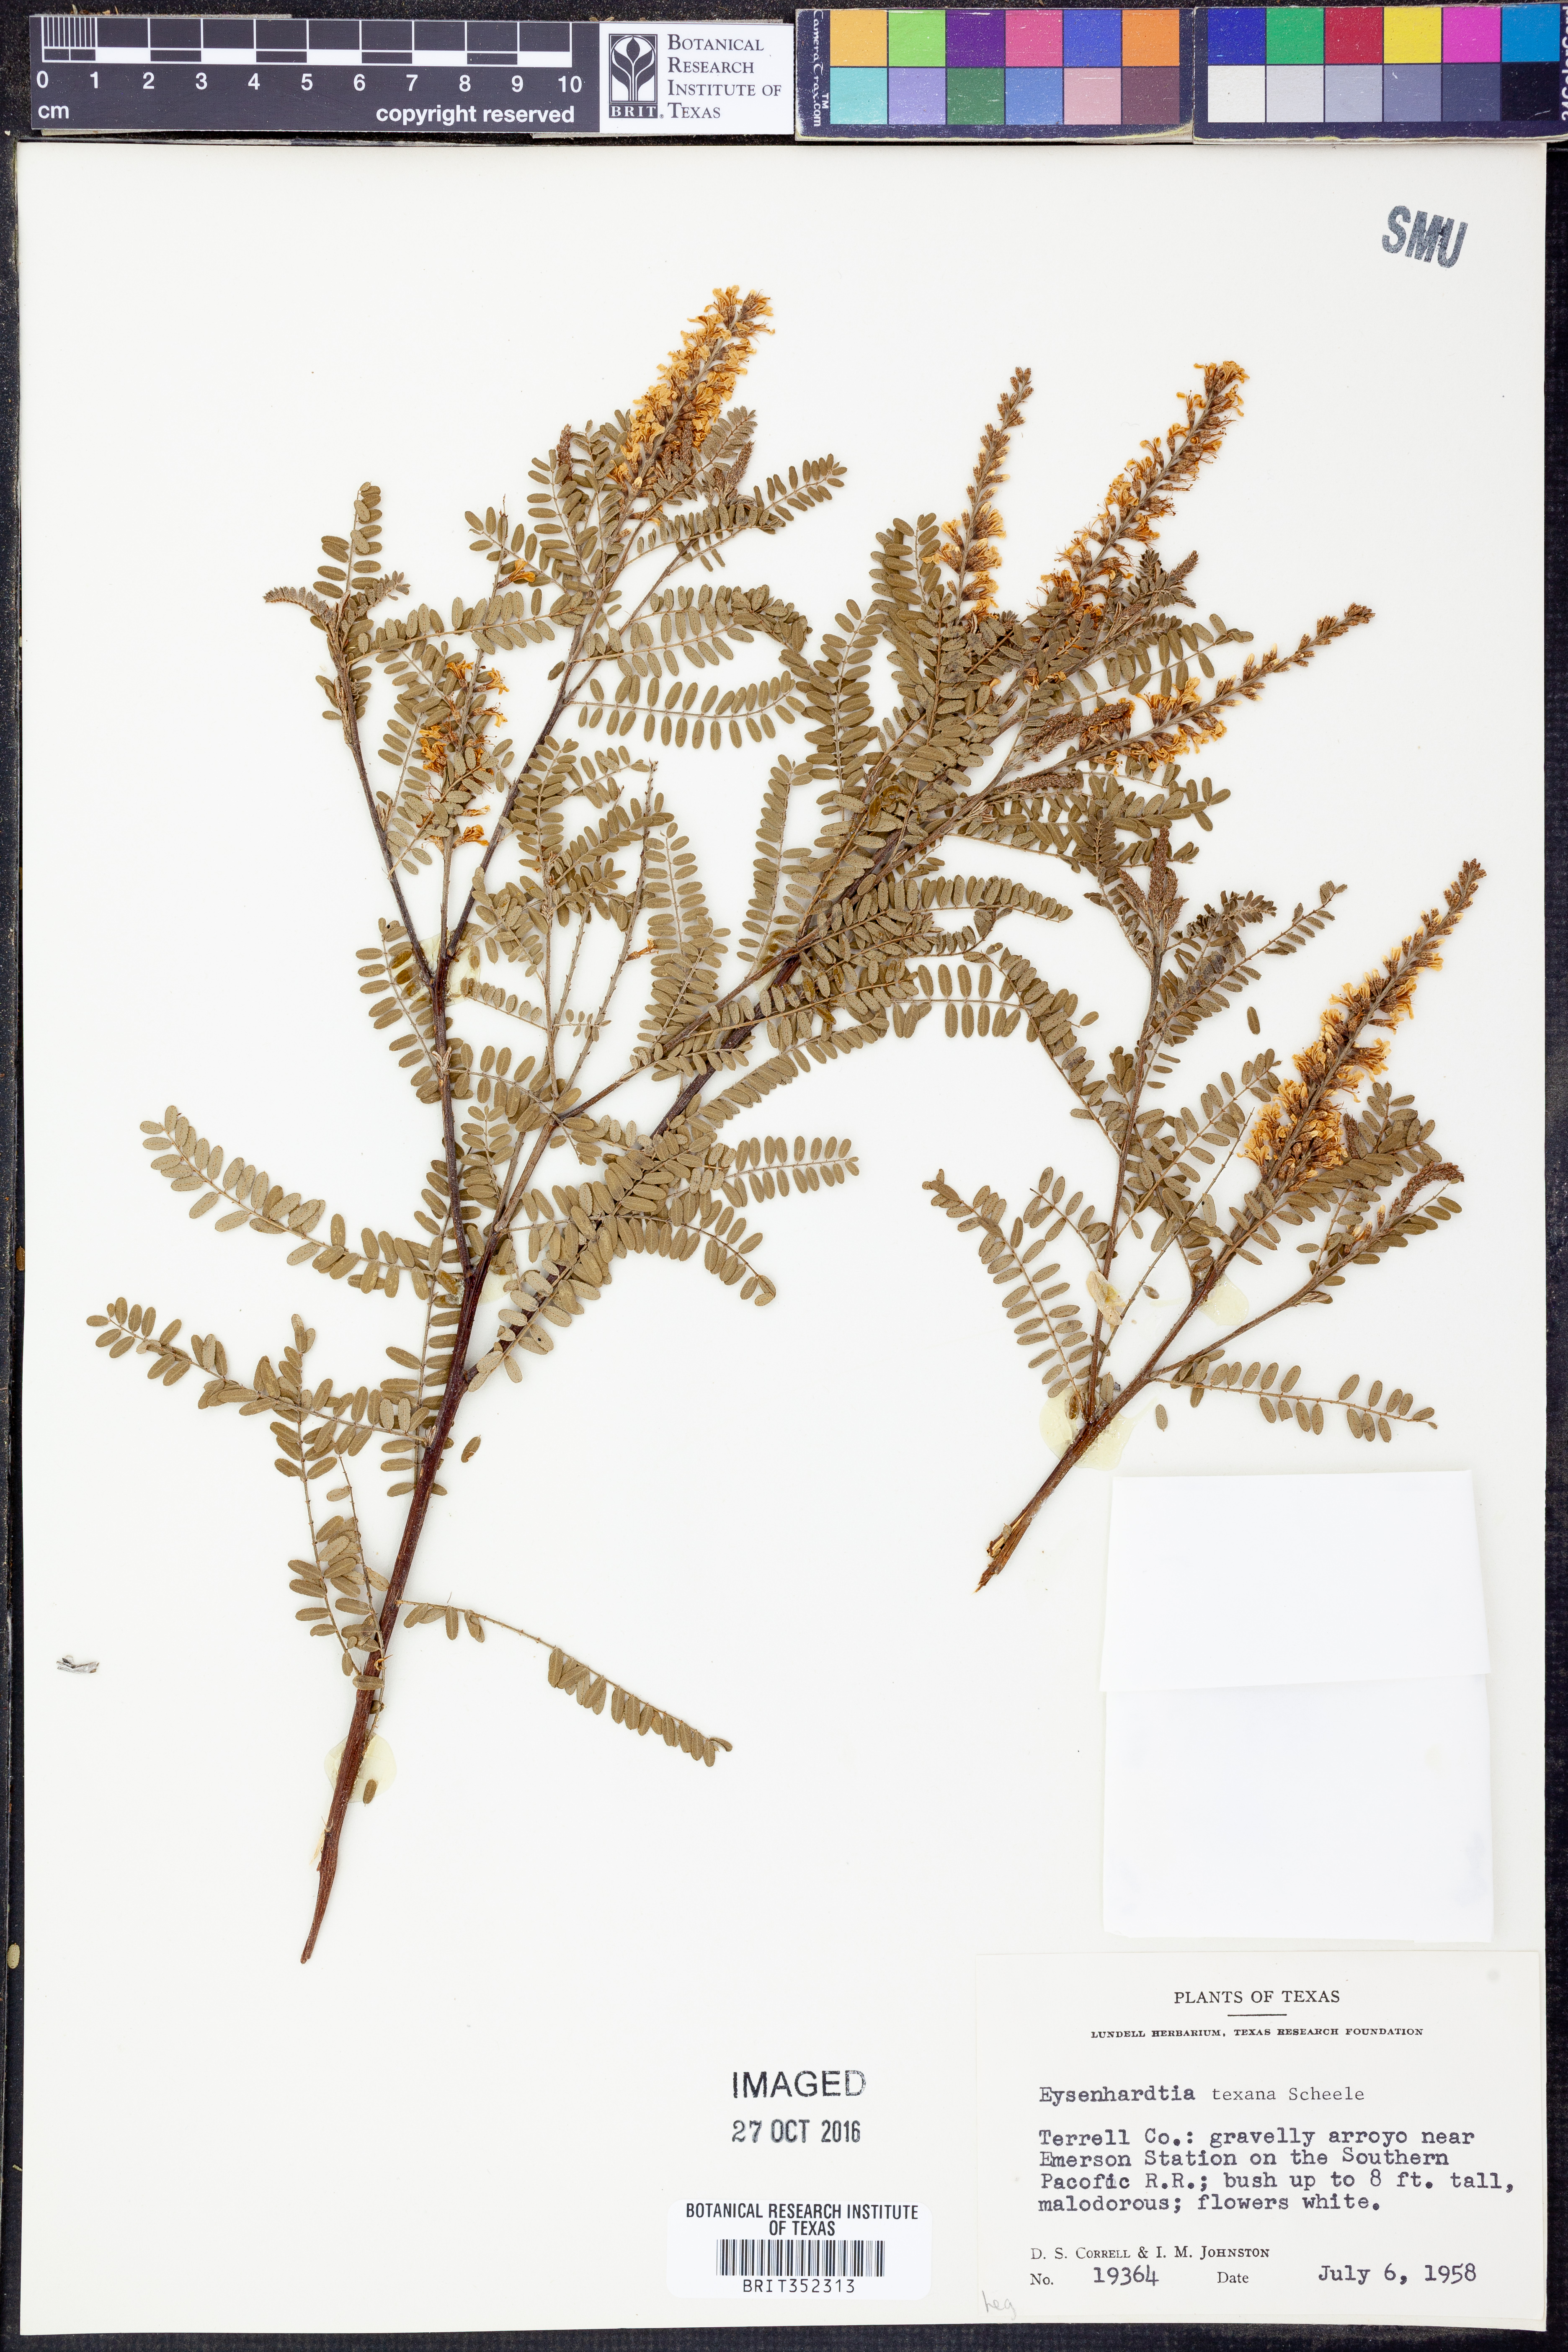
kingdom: Plantae
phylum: Tracheophyta
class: Magnoliopsida
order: Fabales
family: Fabaceae
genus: Eysenhardtia
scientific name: Eysenhardtia texana
